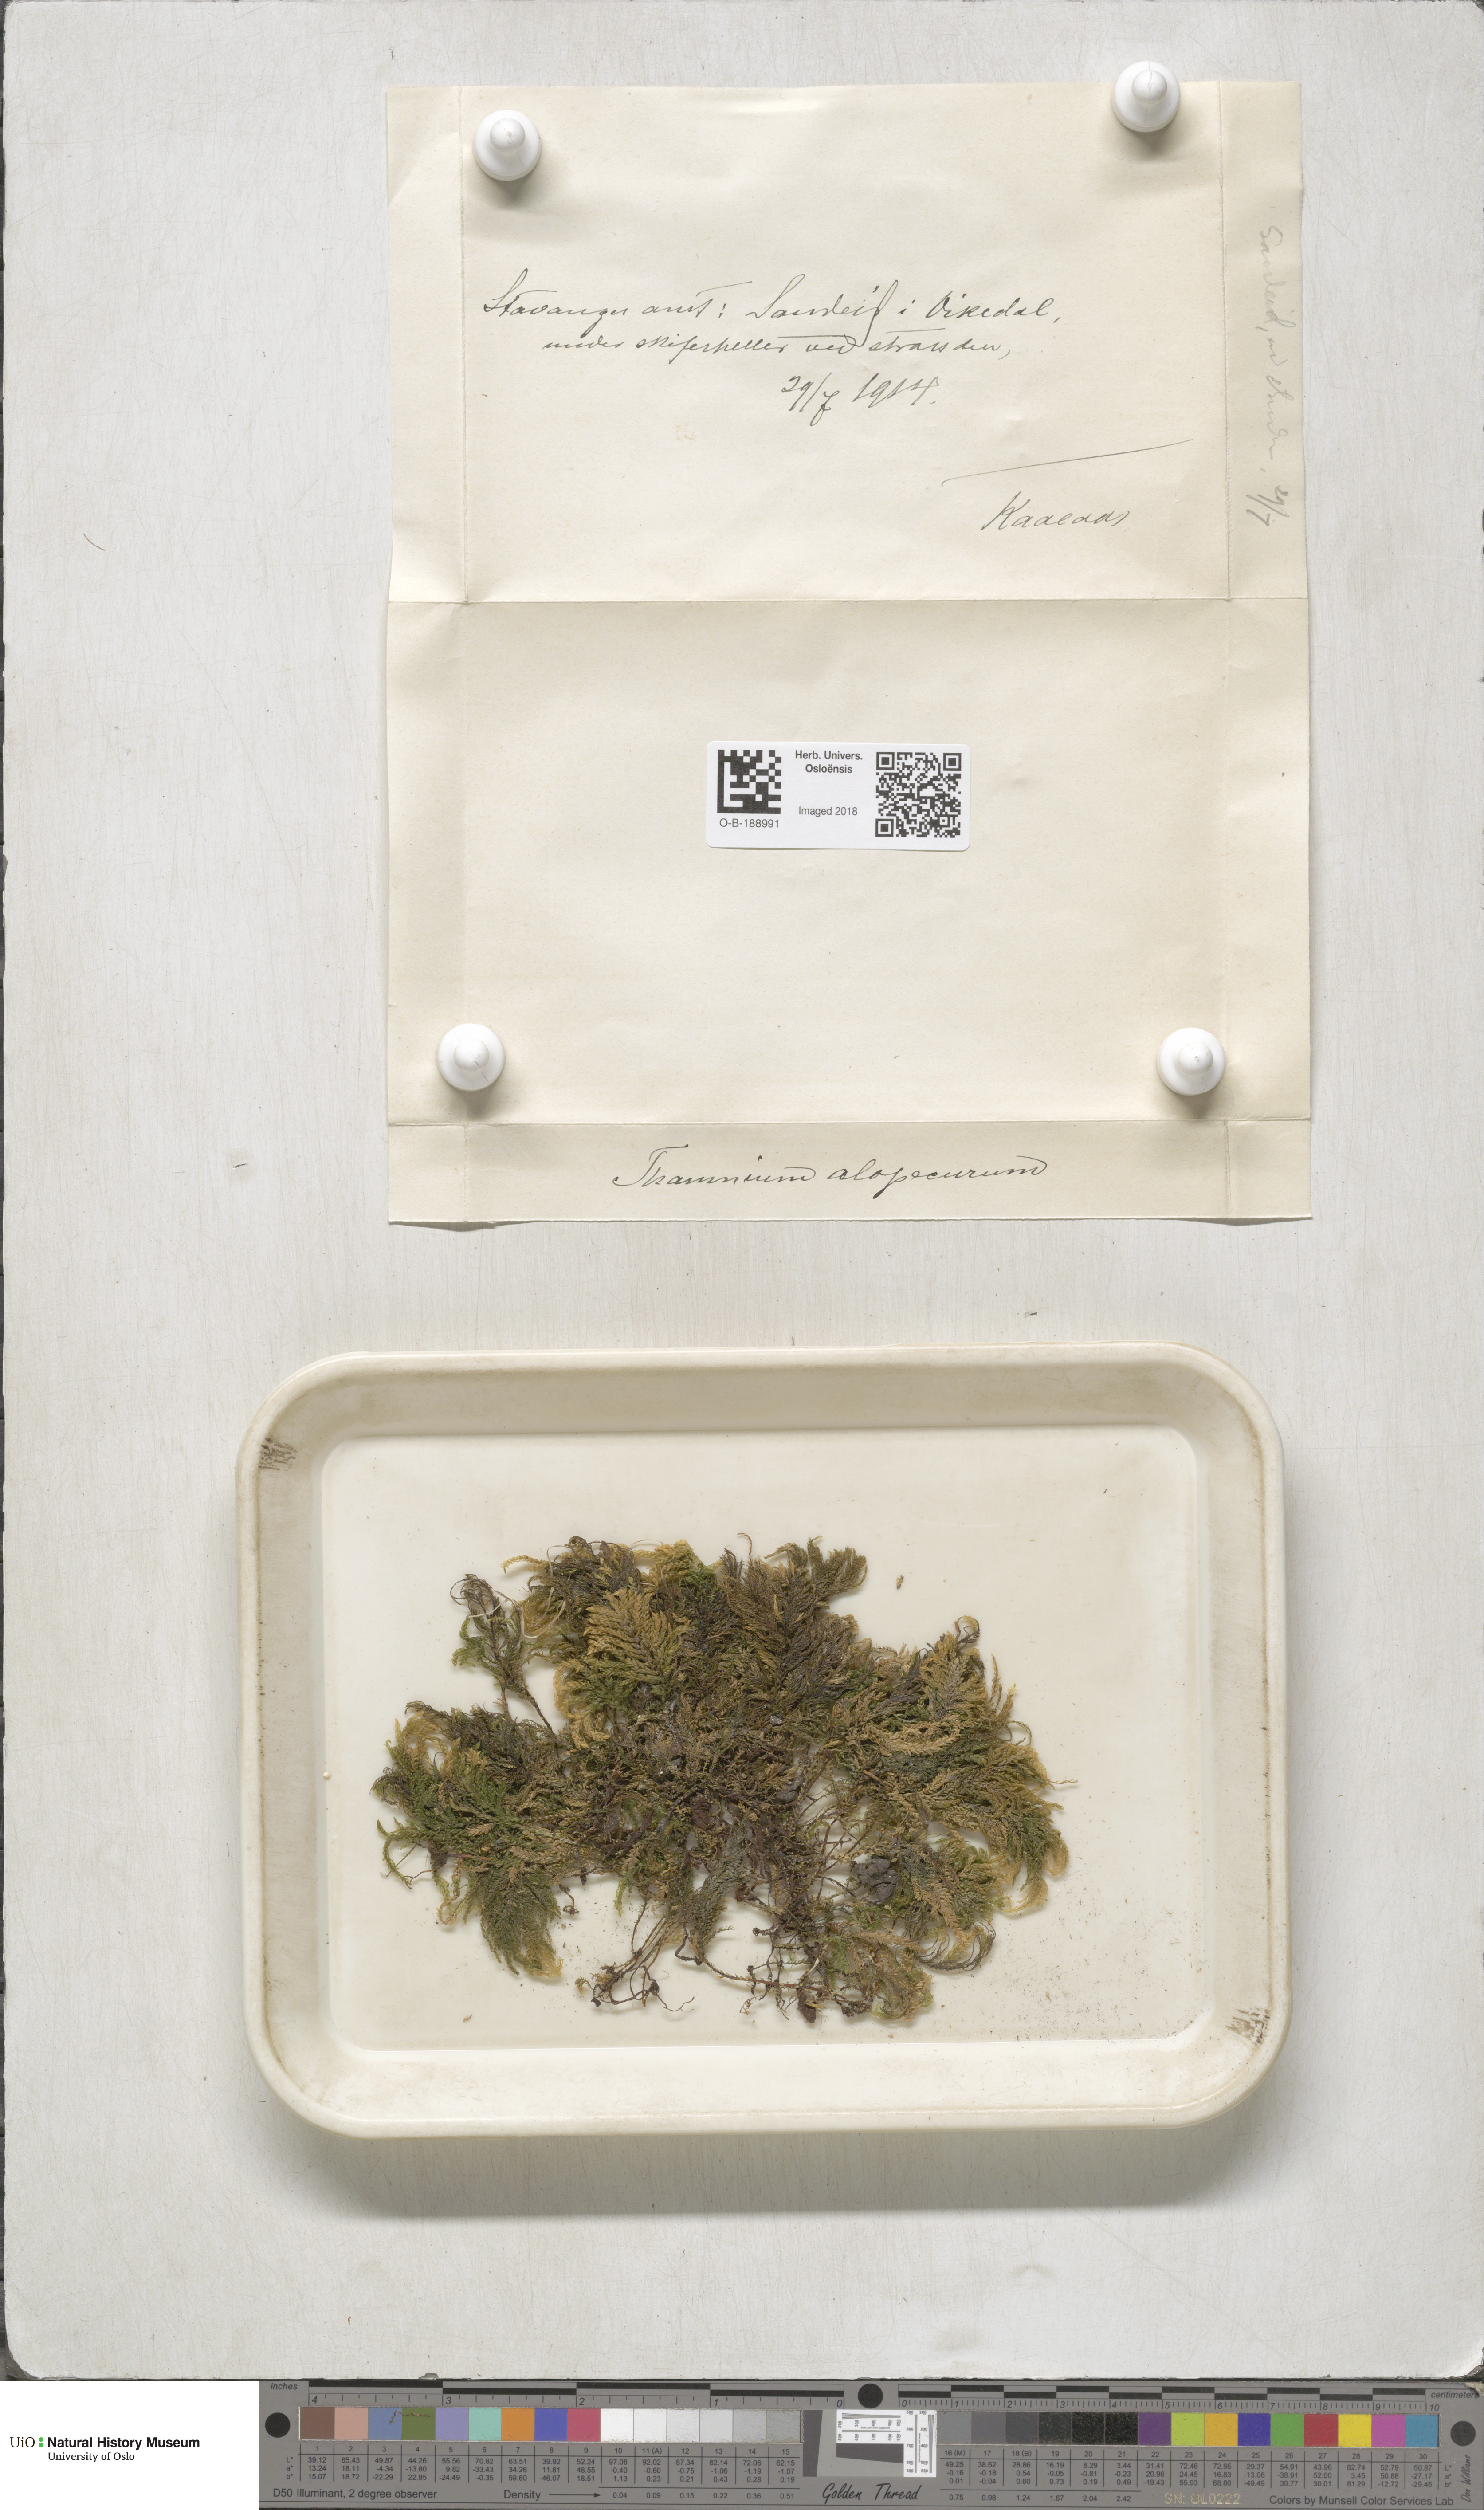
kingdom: Plantae
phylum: Bryophyta
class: Bryopsida
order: Hypnales
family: Neckeraceae
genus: Thamnobryum
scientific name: Thamnobryum alopecurum
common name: Fox-tail feather-moss
